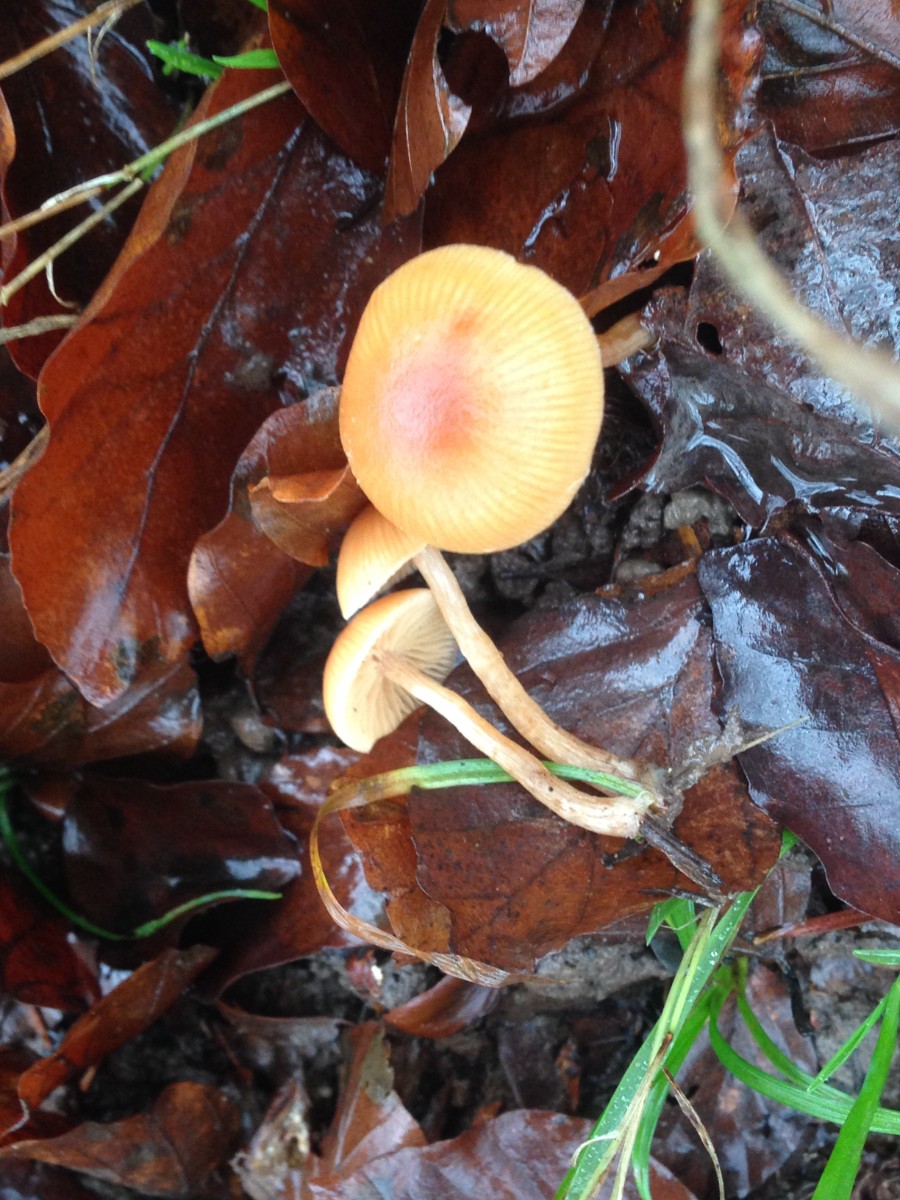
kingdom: Fungi
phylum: Basidiomycota
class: Agaricomycetes
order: Agaricales
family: Tubariaceae
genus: Tubaria
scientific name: Tubaria furfuracea
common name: kliddet fnughat
